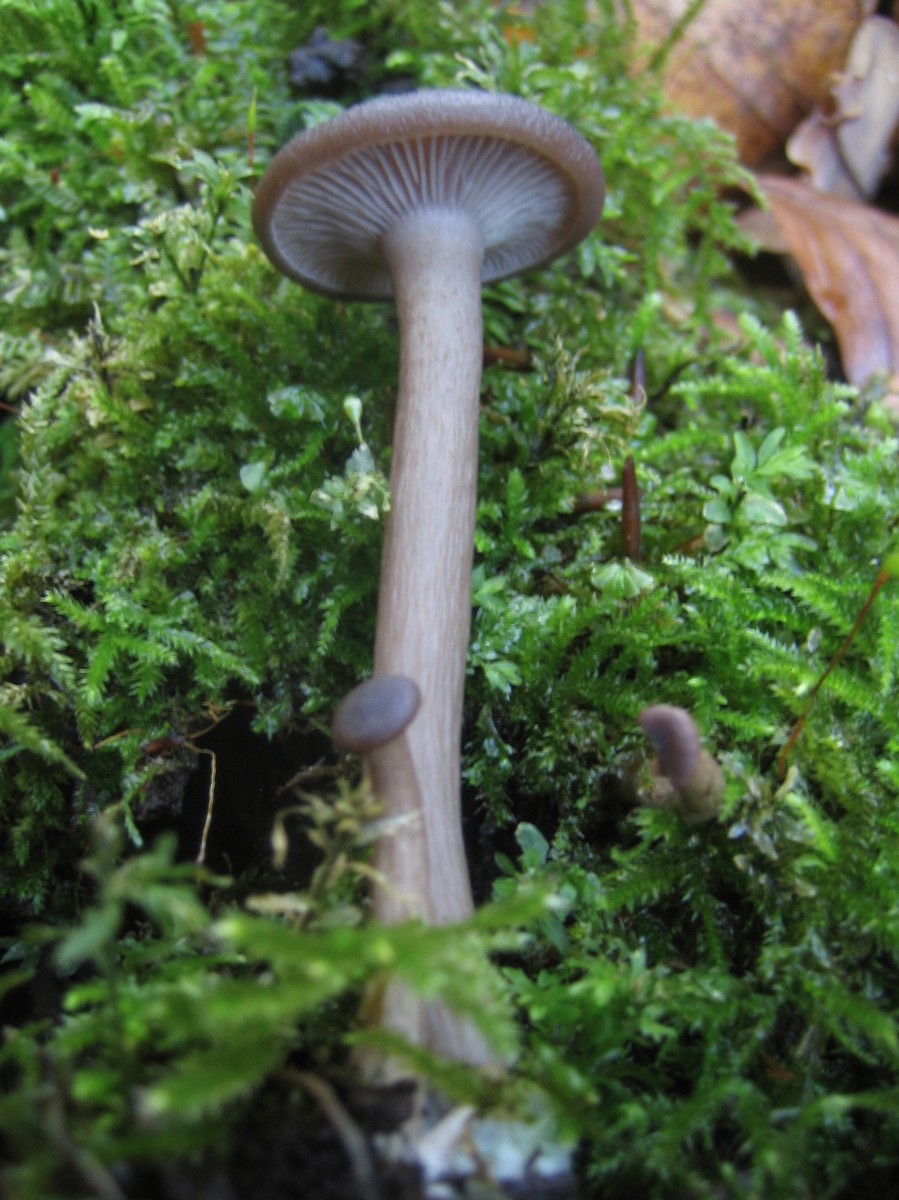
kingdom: Fungi
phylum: Basidiomycota
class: Agaricomycetes
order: Agaricales
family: Pseudoclitocybaceae
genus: Pseudoclitocybe
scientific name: Pseudoclitocybe cyathiformis
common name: almindelig bægertragthat
